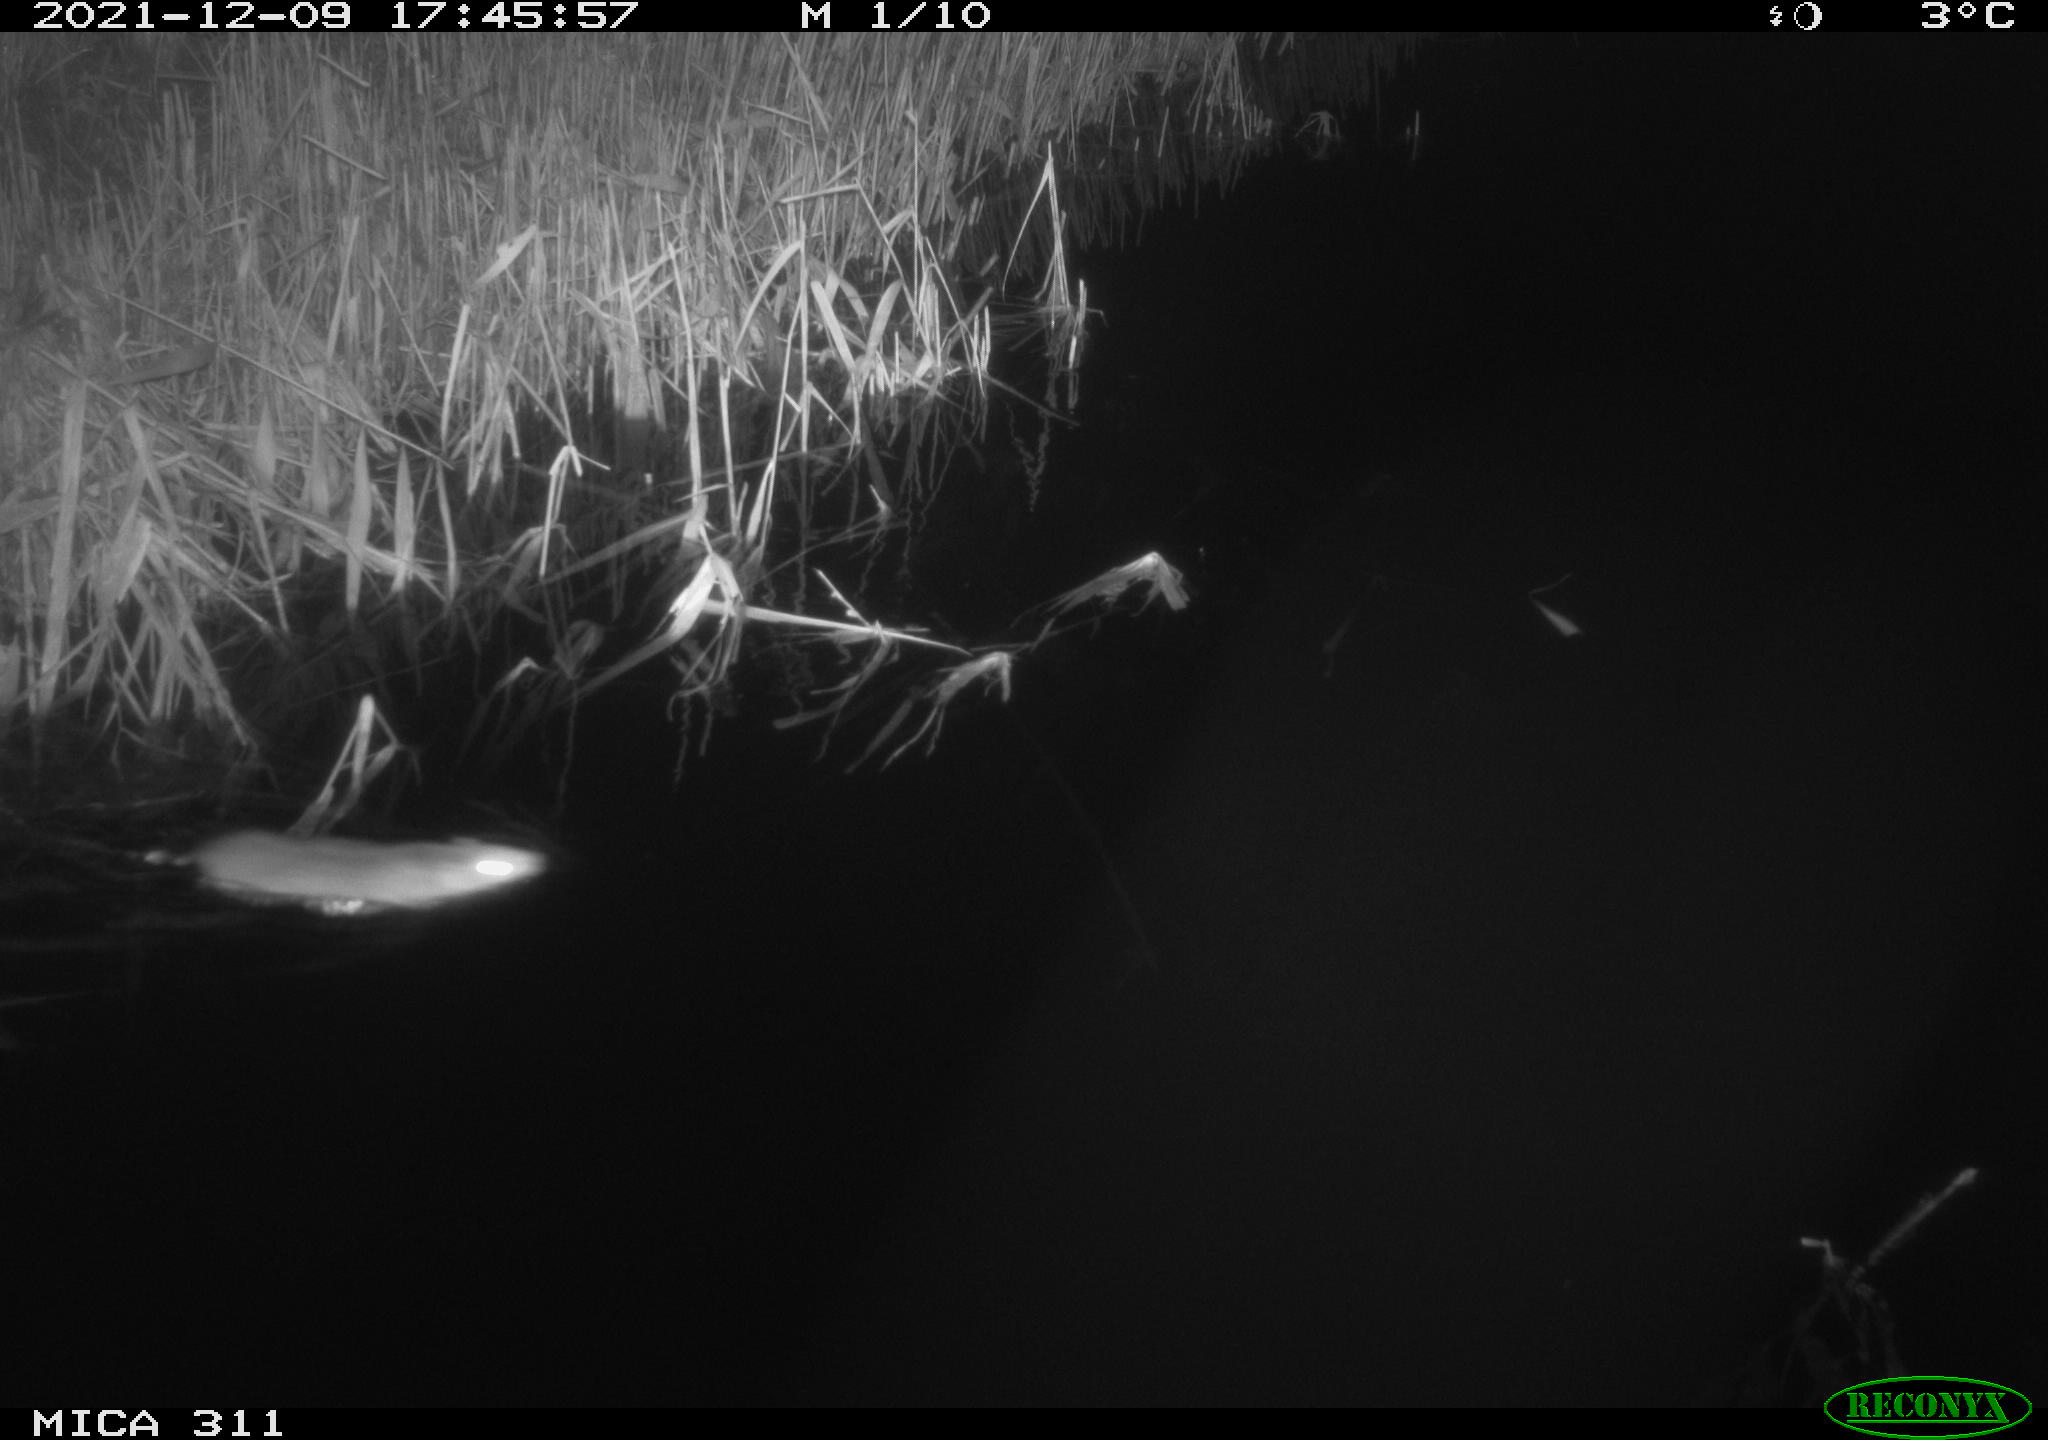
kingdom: Animalia
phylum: Chordata
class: Mammalia
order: Rodentia
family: Muridae
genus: Rattus
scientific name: Rattus norvegicus
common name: Brown rat
